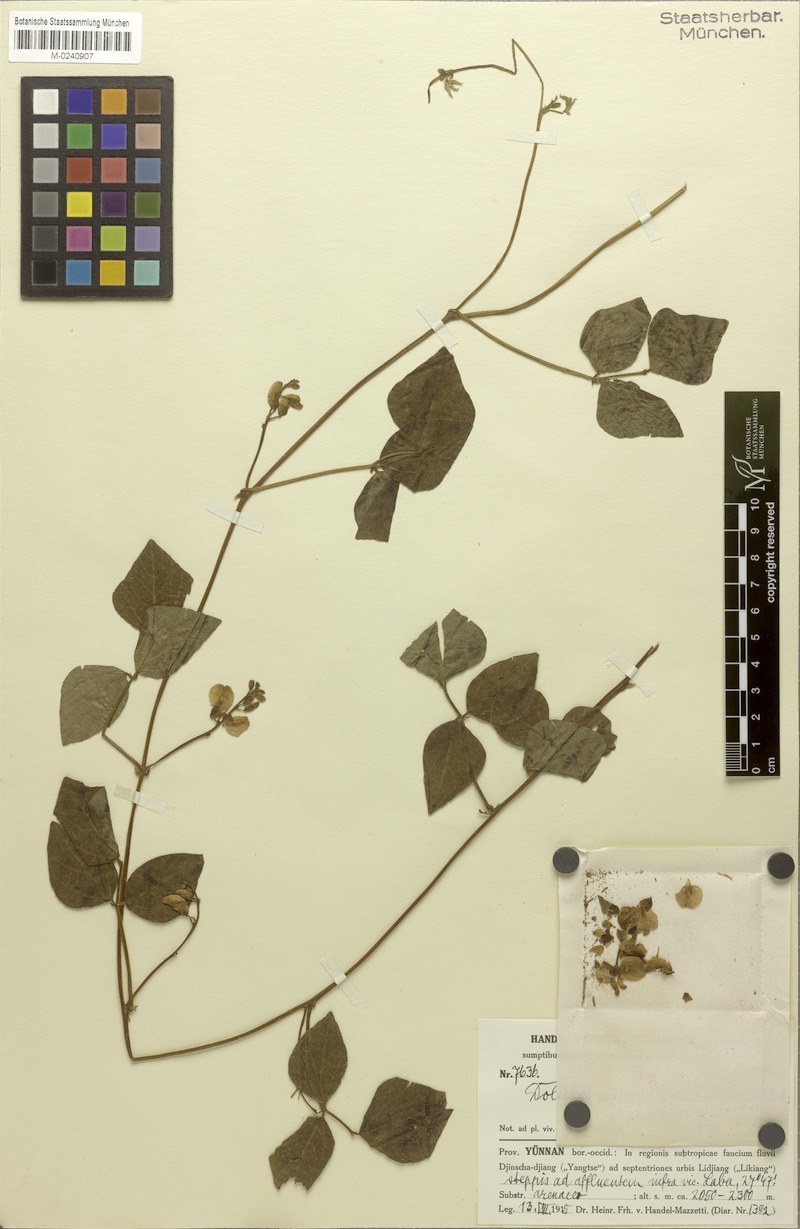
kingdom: Plantae
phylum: Tracheophyta
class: Magnoliopsida
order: Fabales
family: Fabaceae
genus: Dolichos
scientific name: Dolichos tenuicaulis
